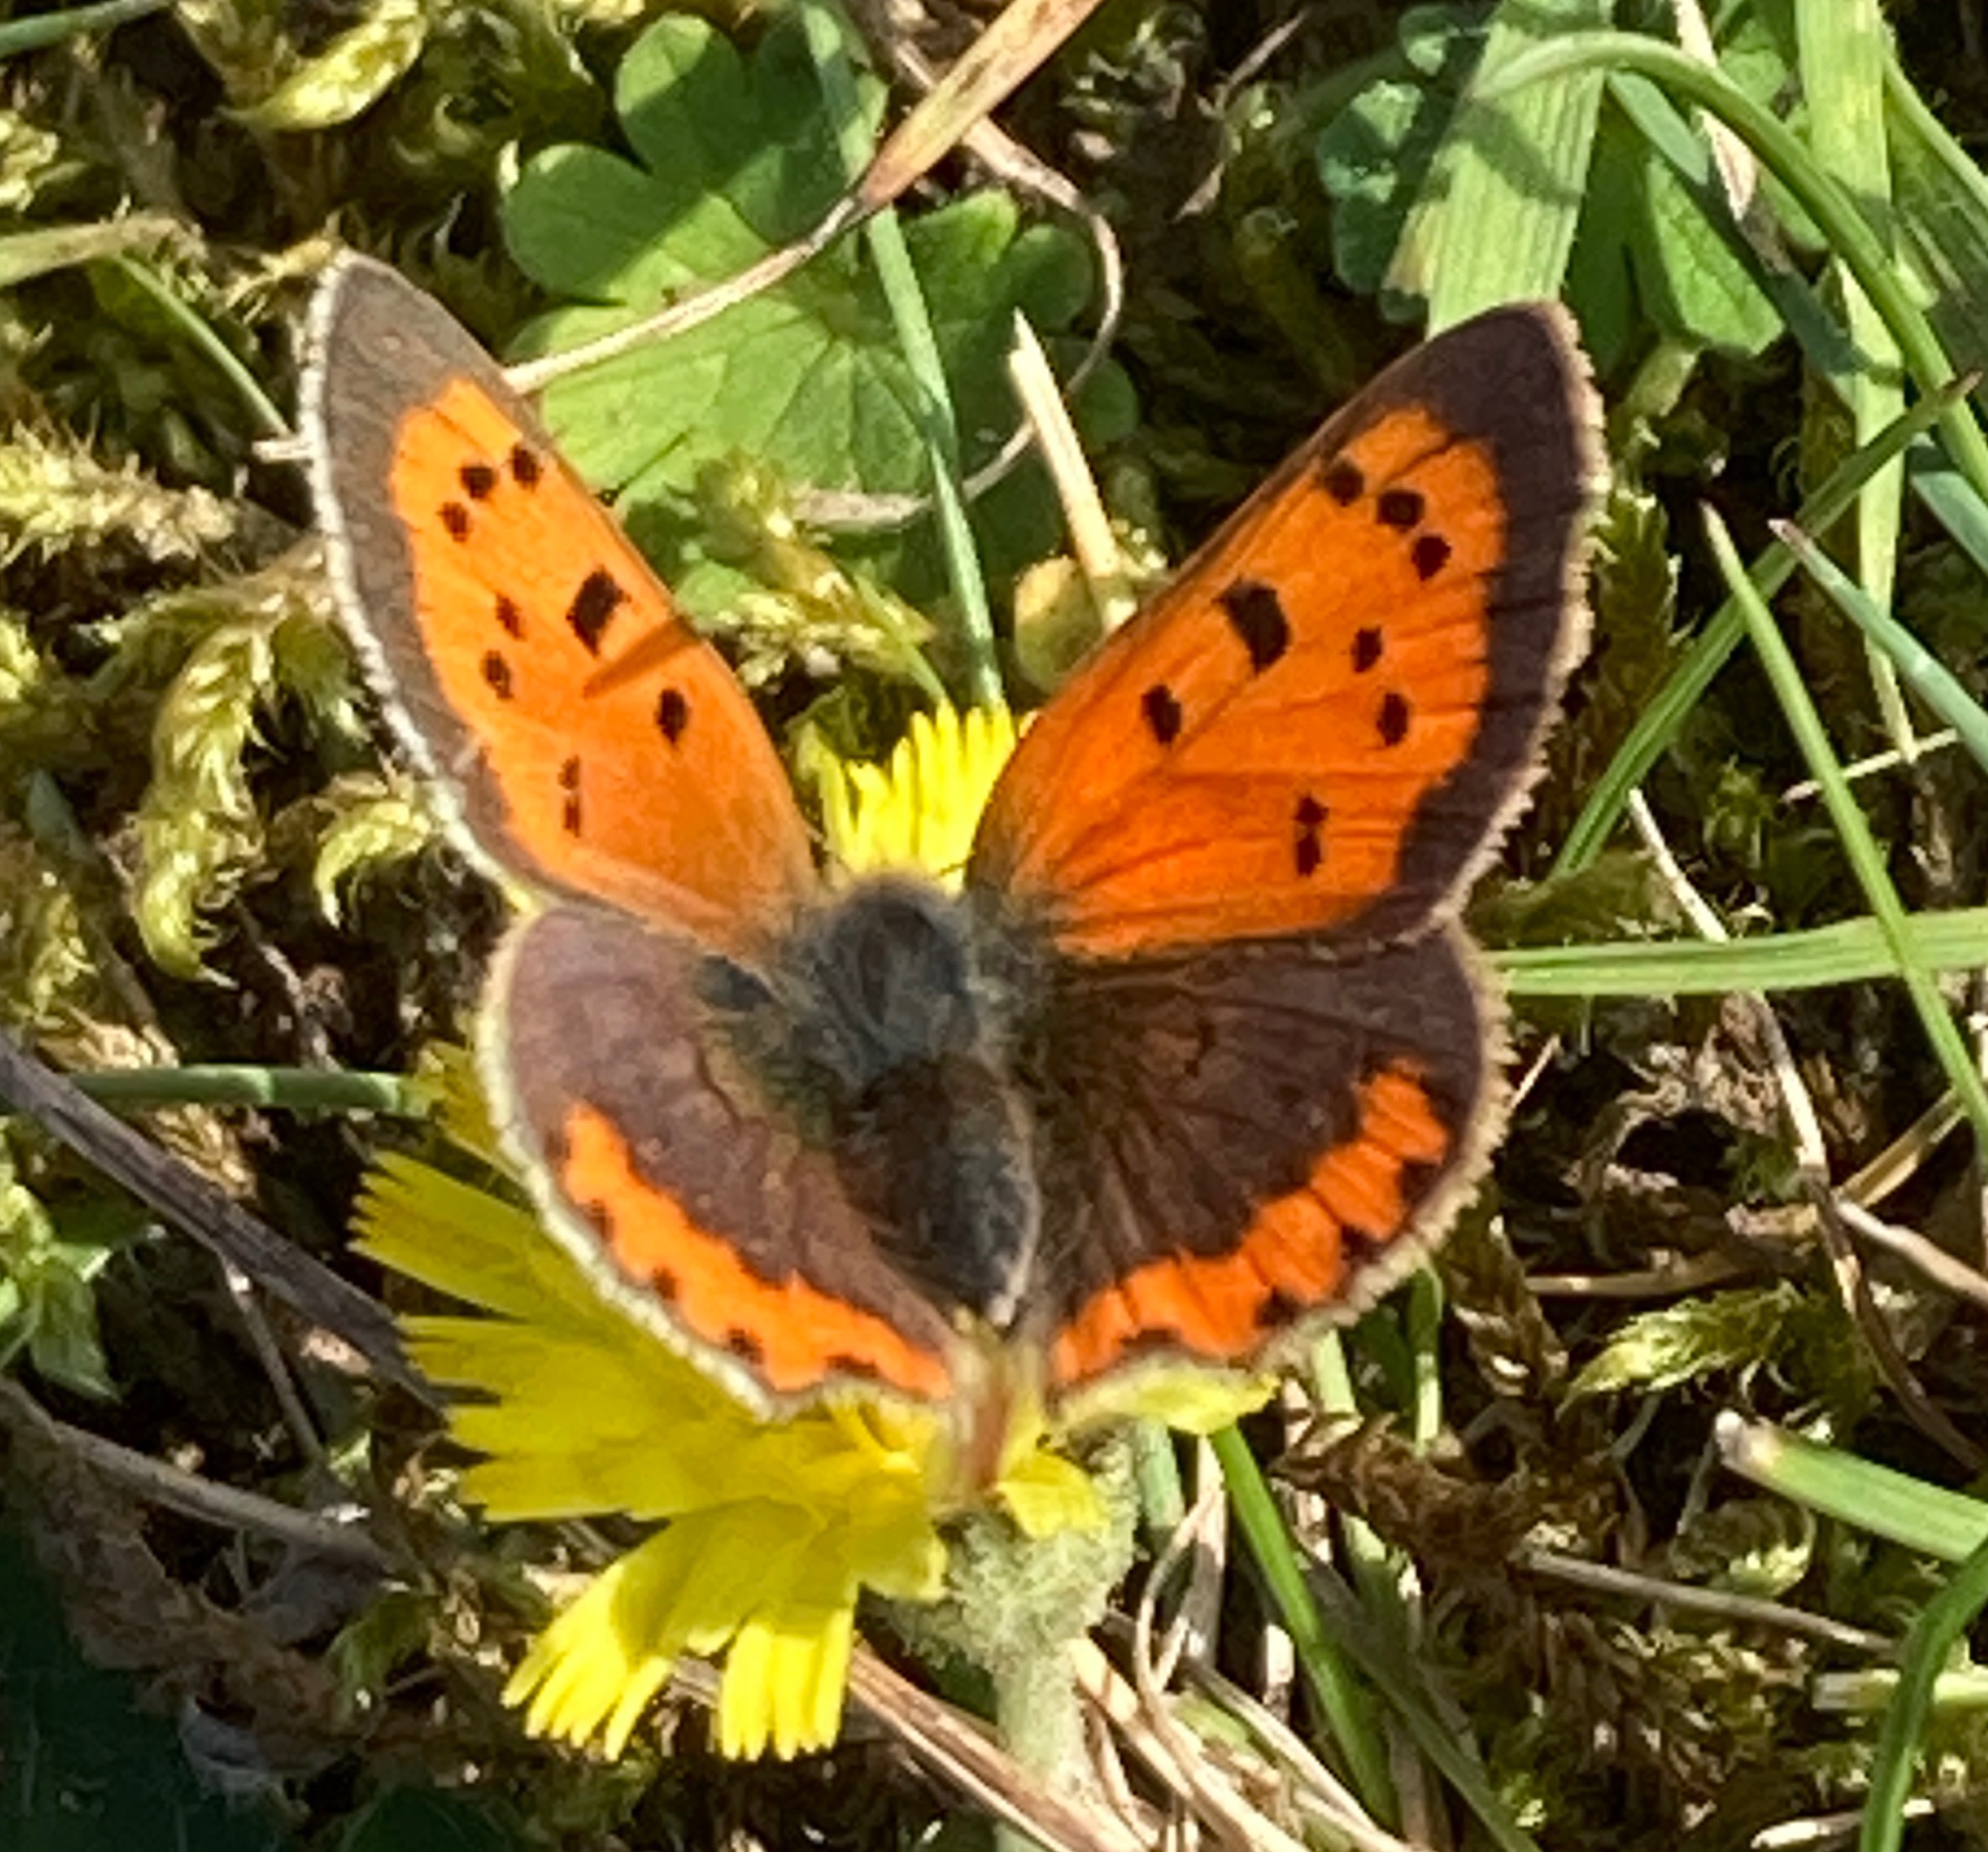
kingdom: Animalia
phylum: Arthropoda
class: Insecta
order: Lepidoptera
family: Lycaenidae
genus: Lycaena
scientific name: Lycaena phlaeas
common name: Lille ildfugl
